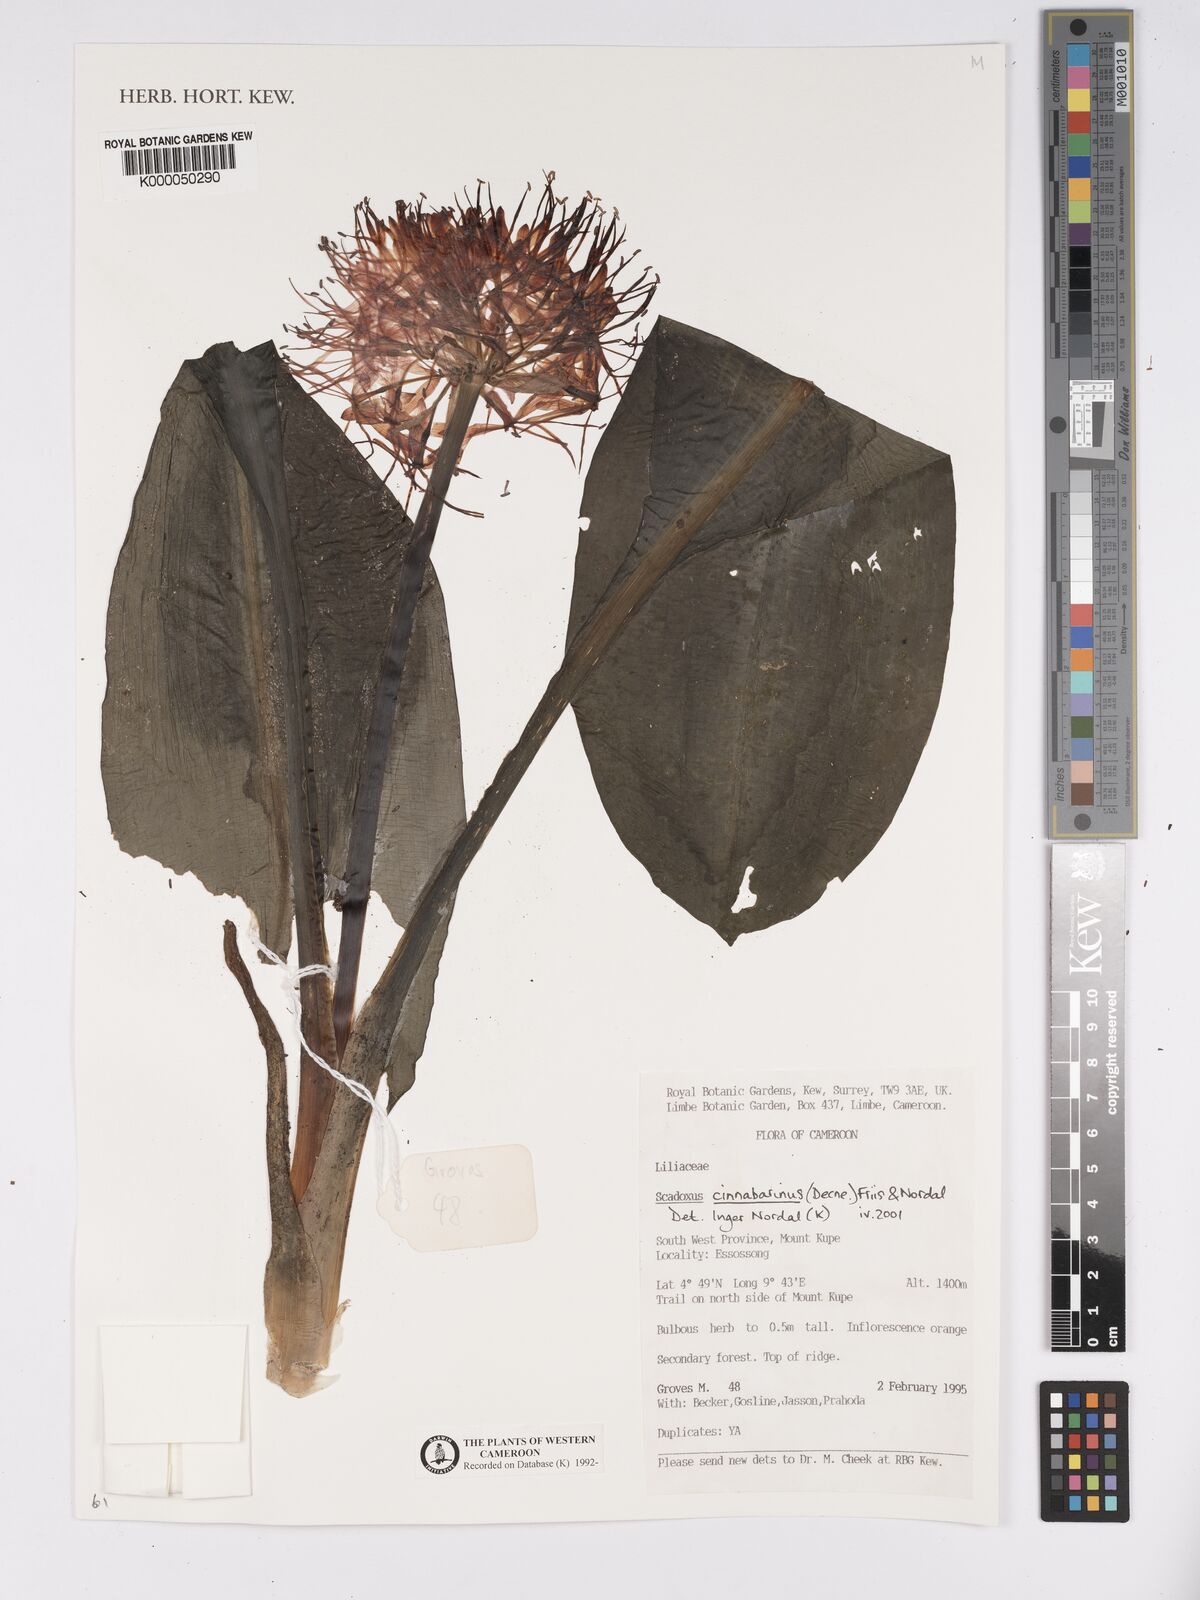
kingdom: Plantae
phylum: Tracheophyta
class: Liliopsida
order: Asparagales
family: Amaryllidaceae
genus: Scadoxus
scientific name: Scadoxus cinnabarinus
